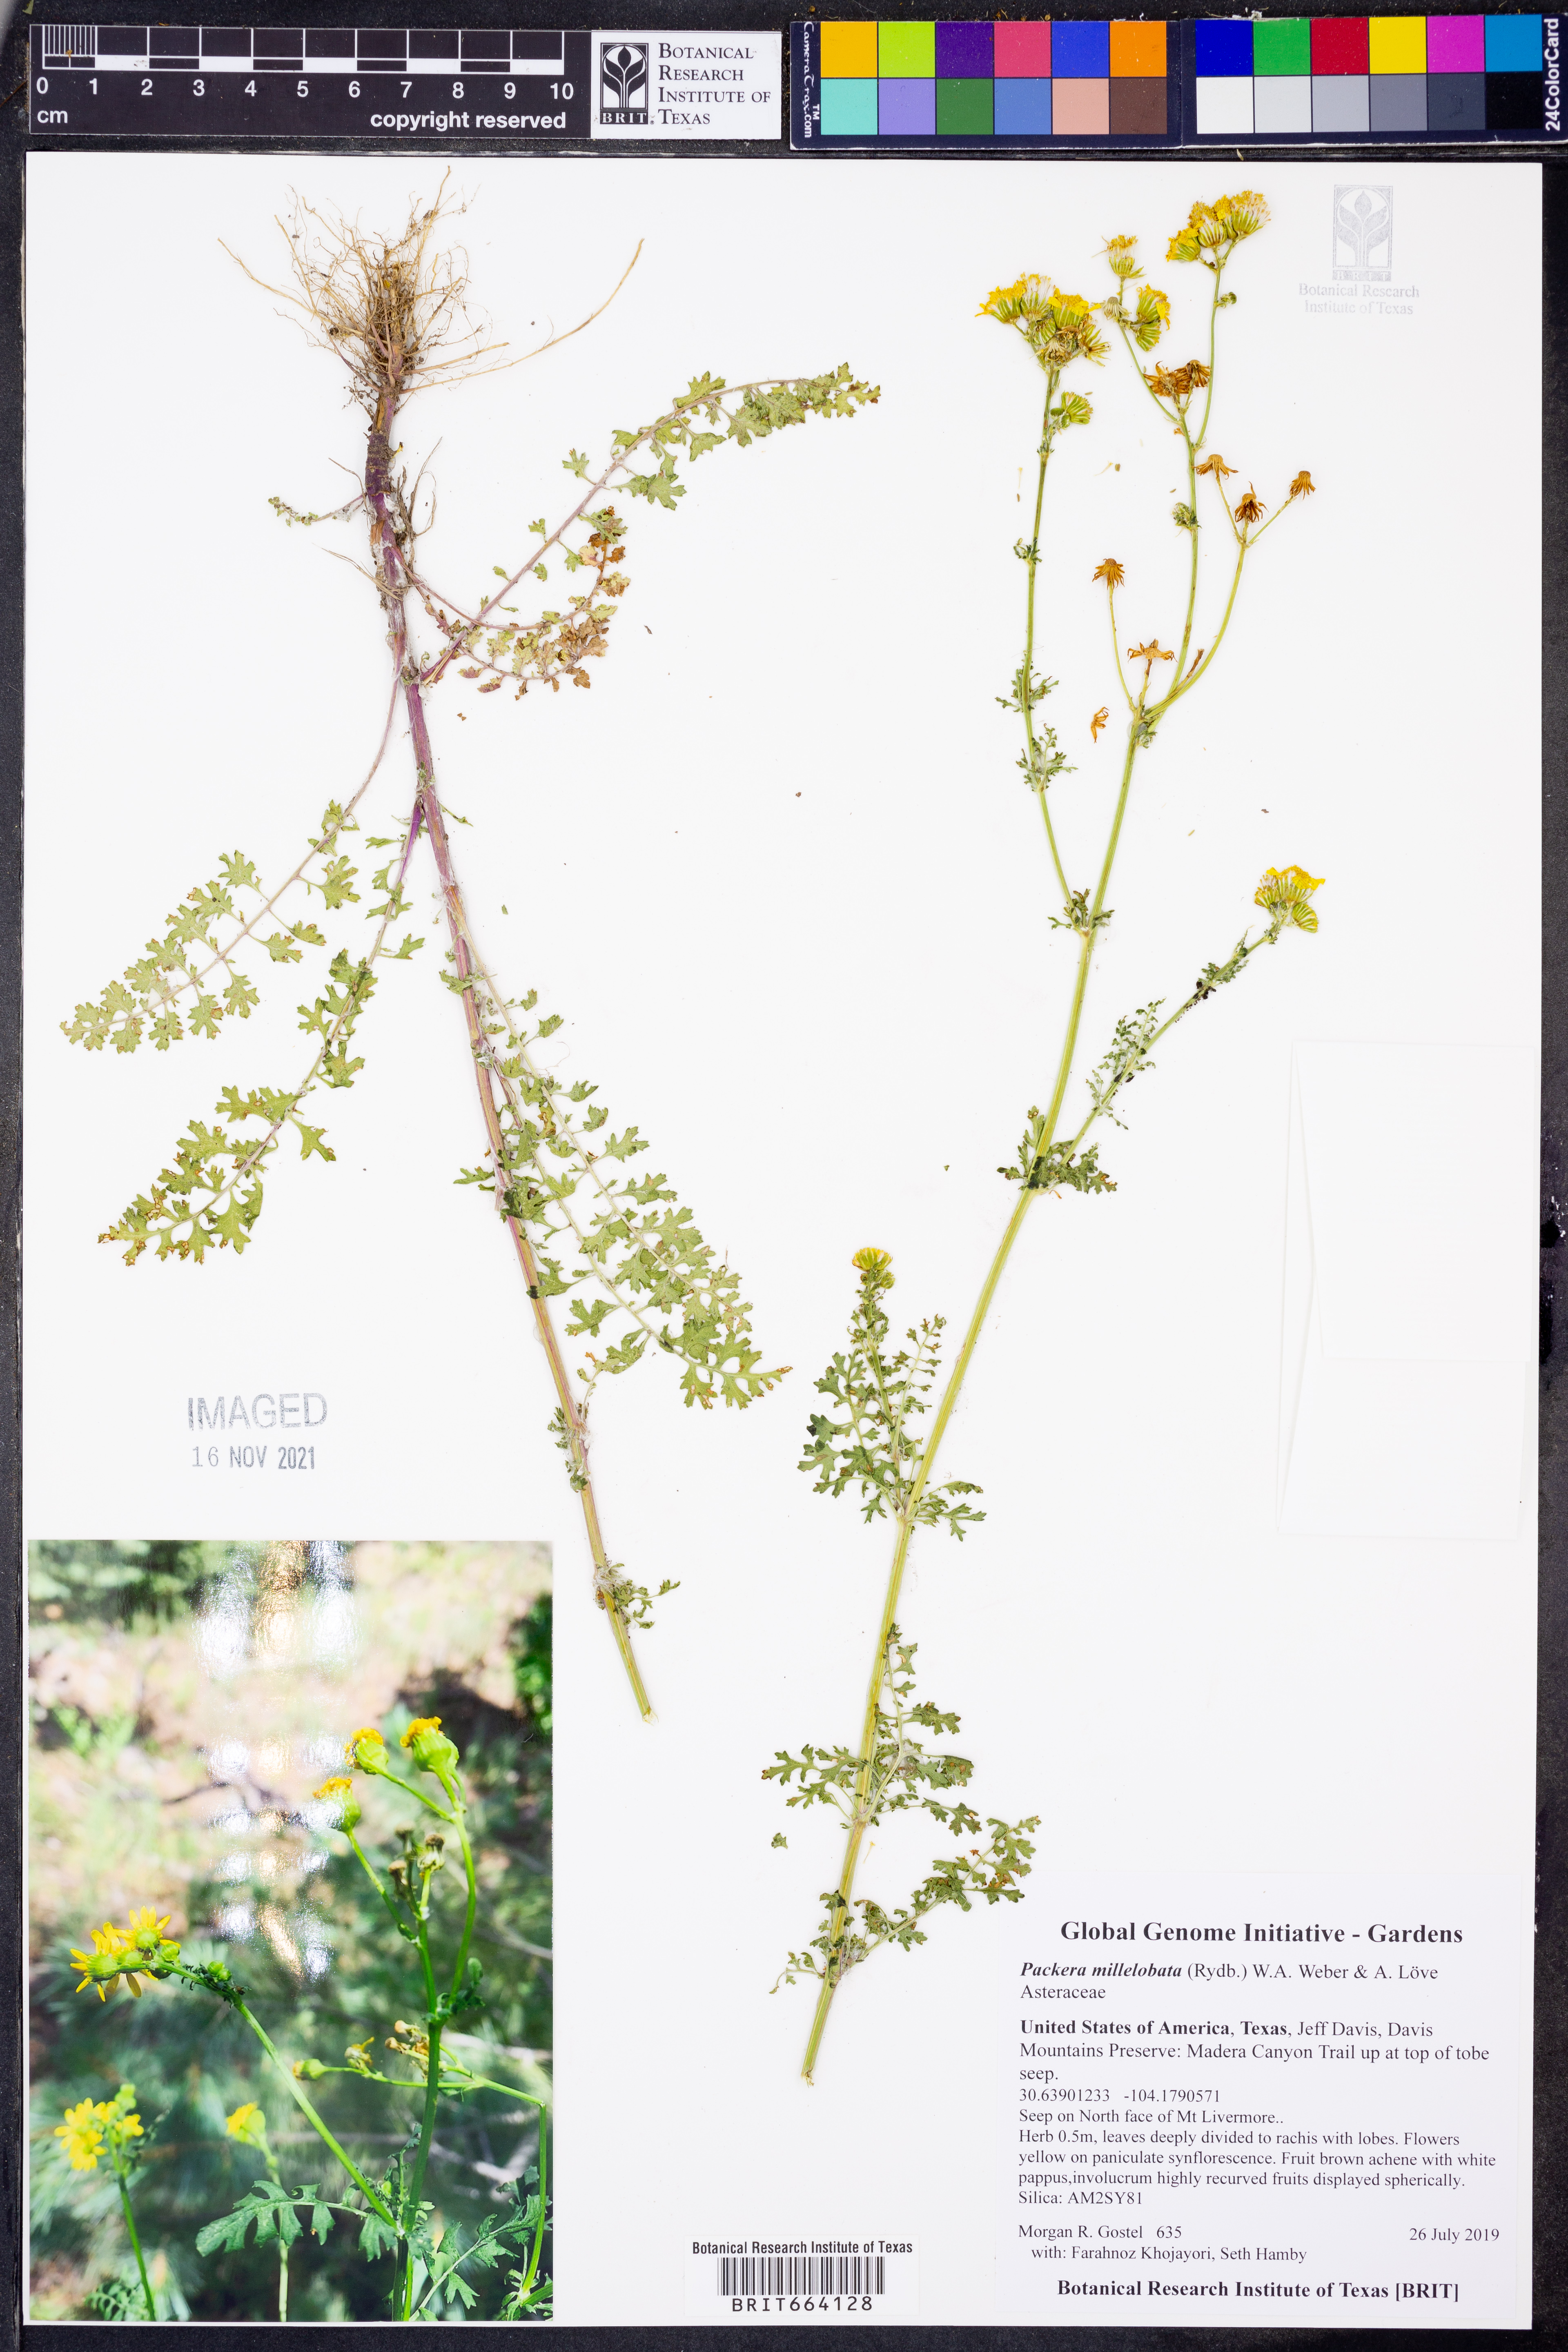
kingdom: Plantae
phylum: Tracheophyta
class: Magnoliopsida
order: Asterales
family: Asteraceae
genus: Packera
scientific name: Packera millelobata
